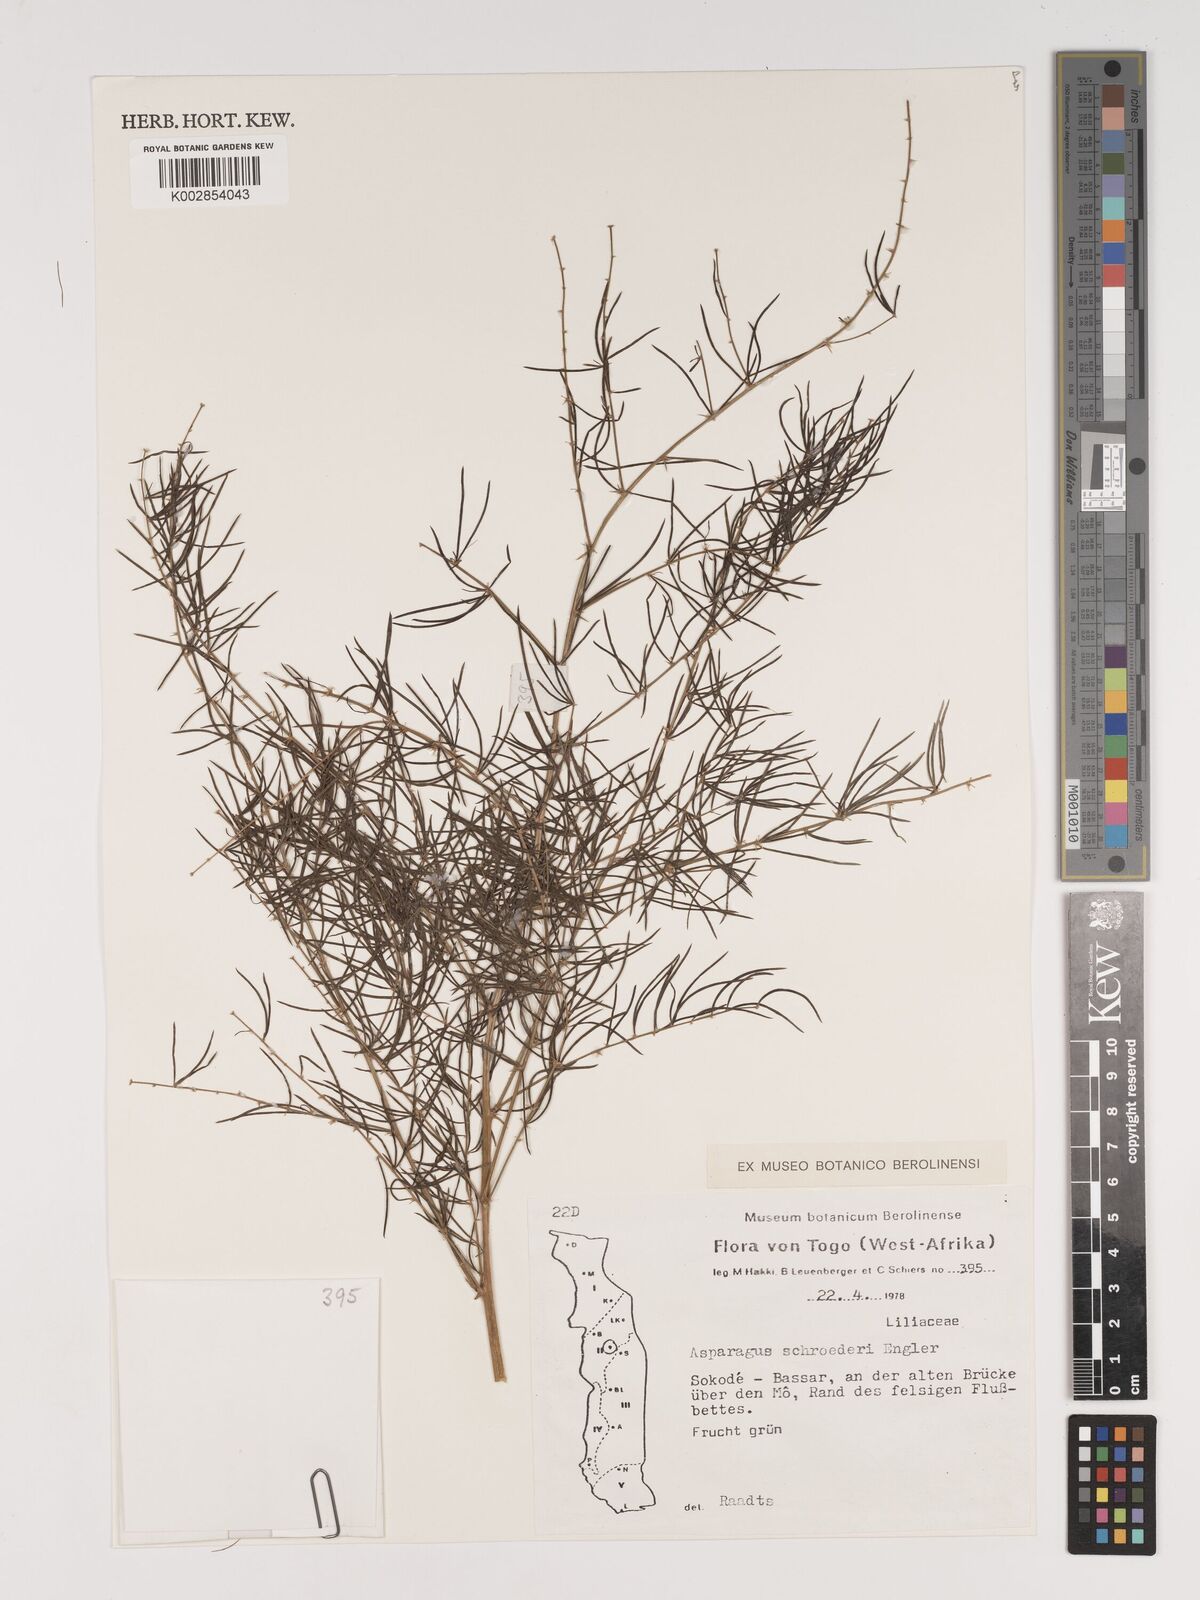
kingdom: Plantae
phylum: Tracheophyta
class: Liliopsida
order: Asparagales
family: Asparagaceae
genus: Asparagus
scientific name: Asparagus schroederi
